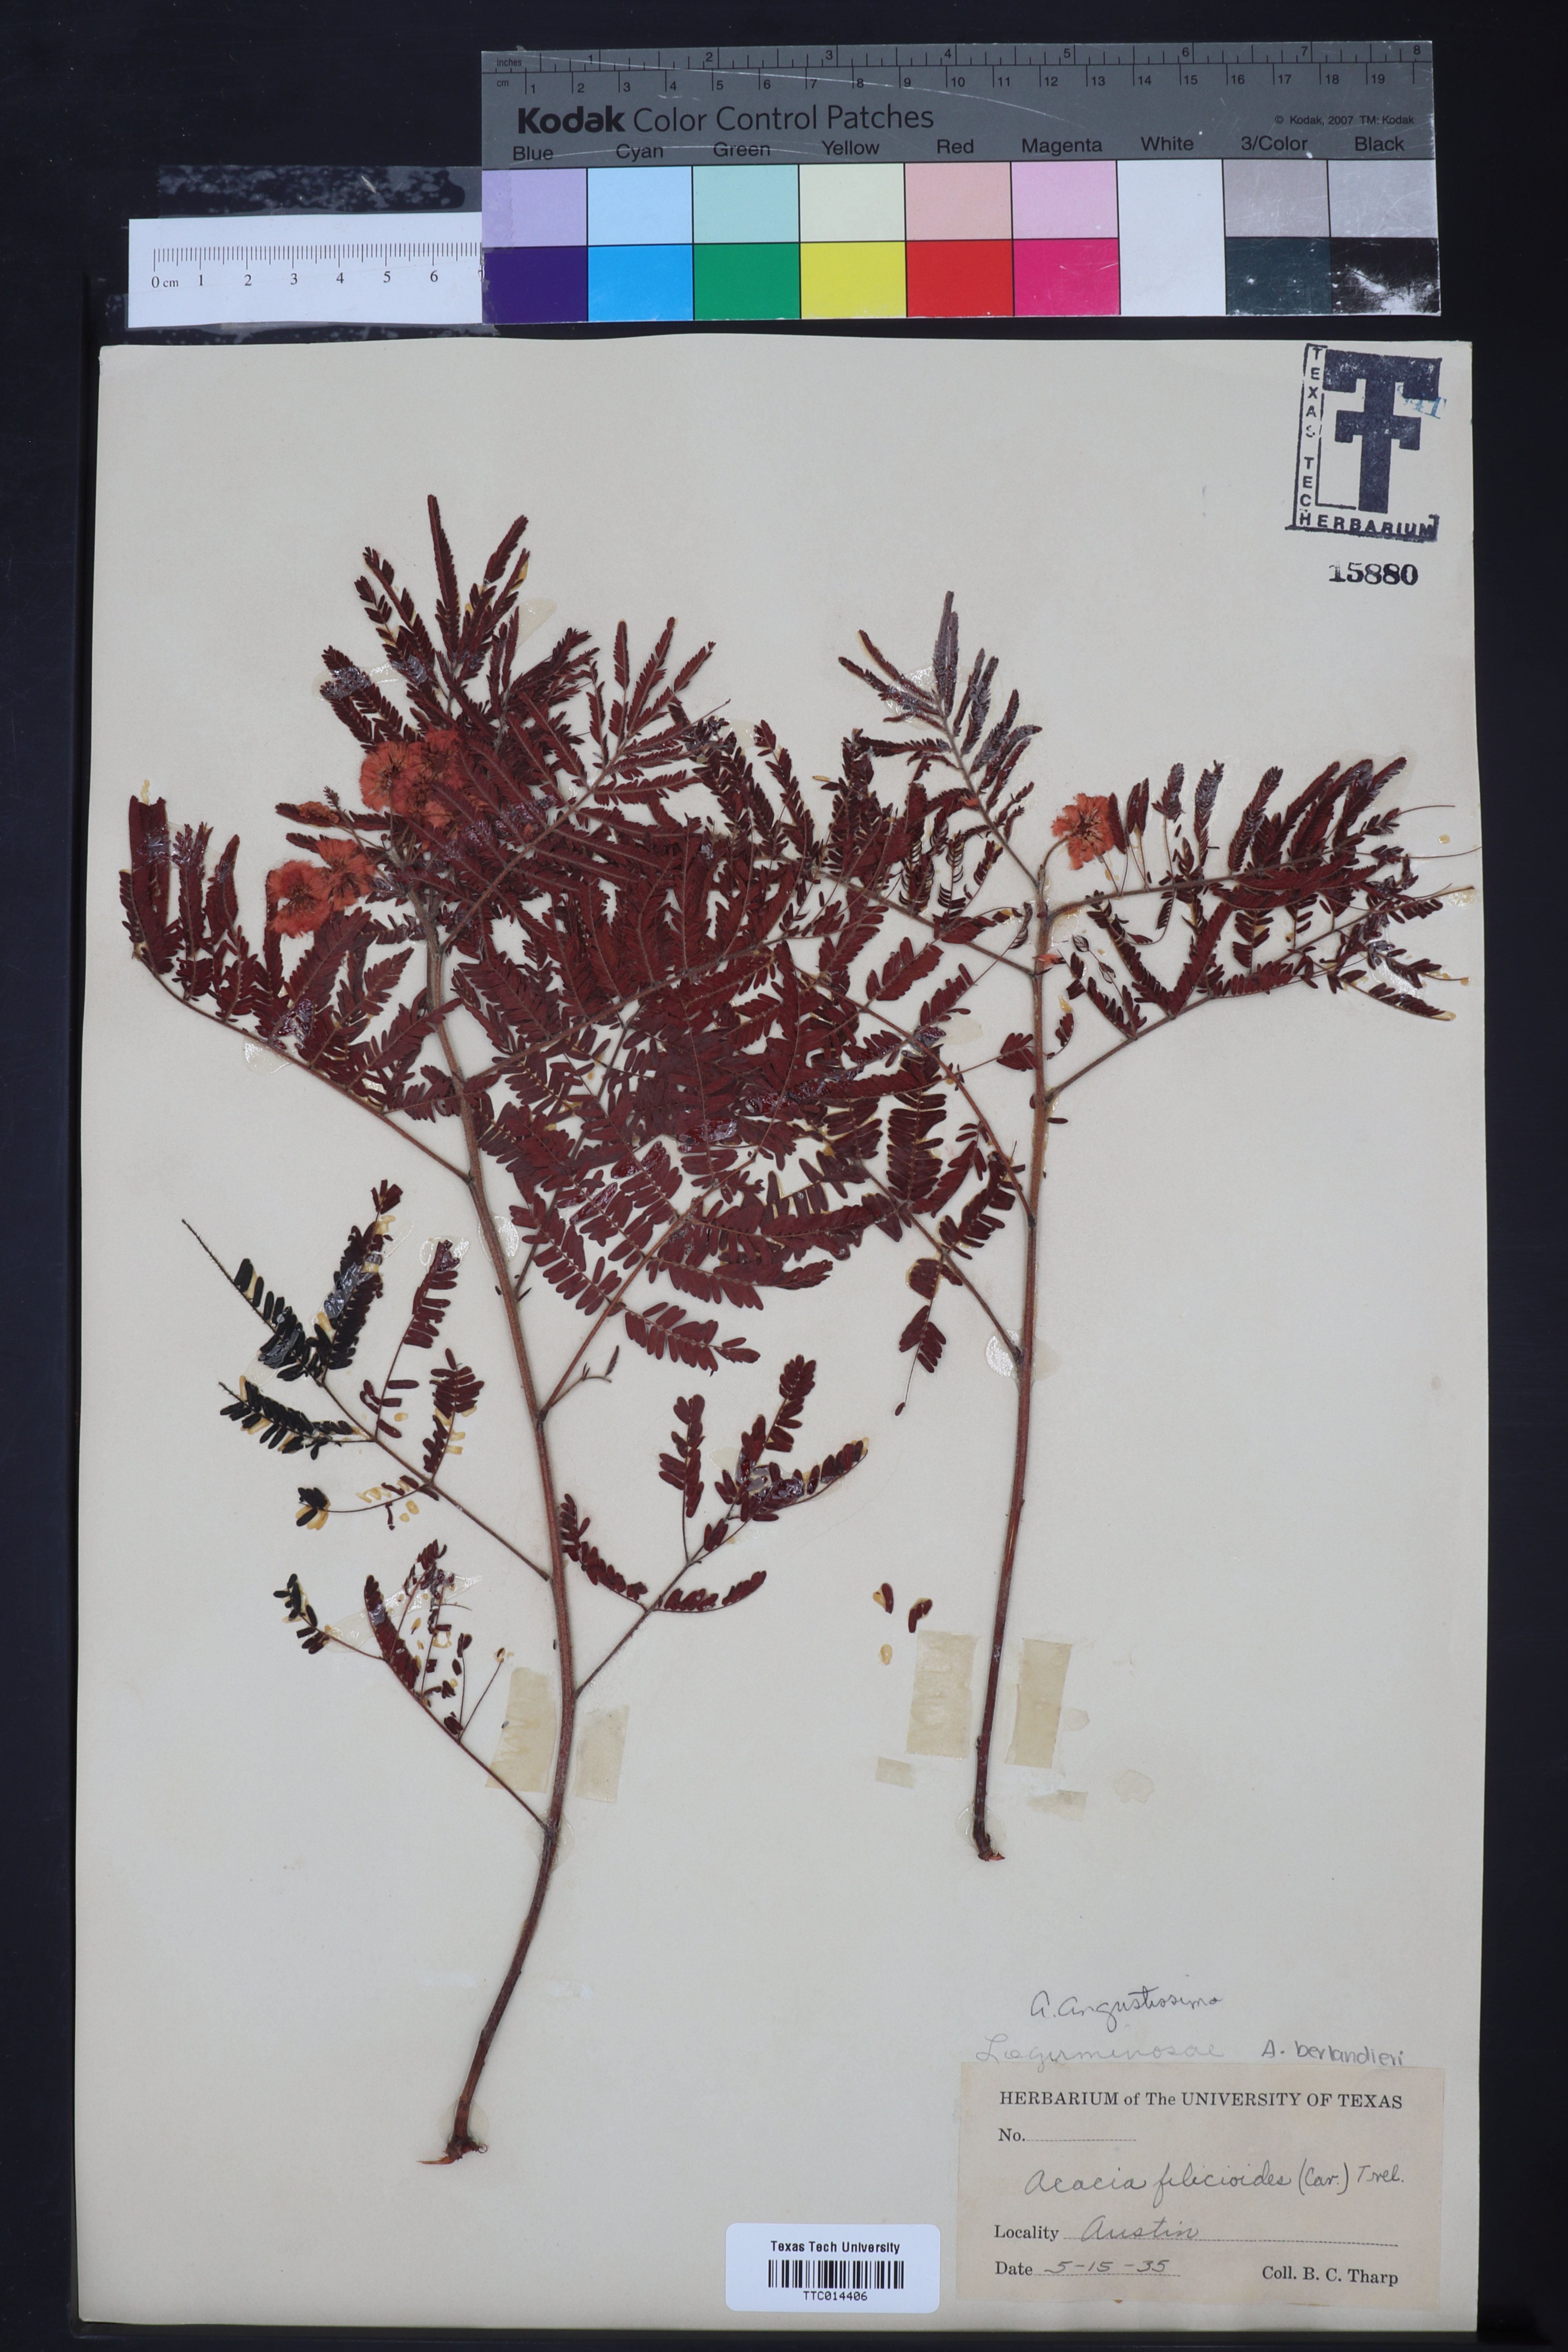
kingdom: Plantae
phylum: Tracheophyta
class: Magnoliopsida
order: Fabales
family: Fabaceae
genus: Acaciella
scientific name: Acaciella angustissima
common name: Prairie acacia
